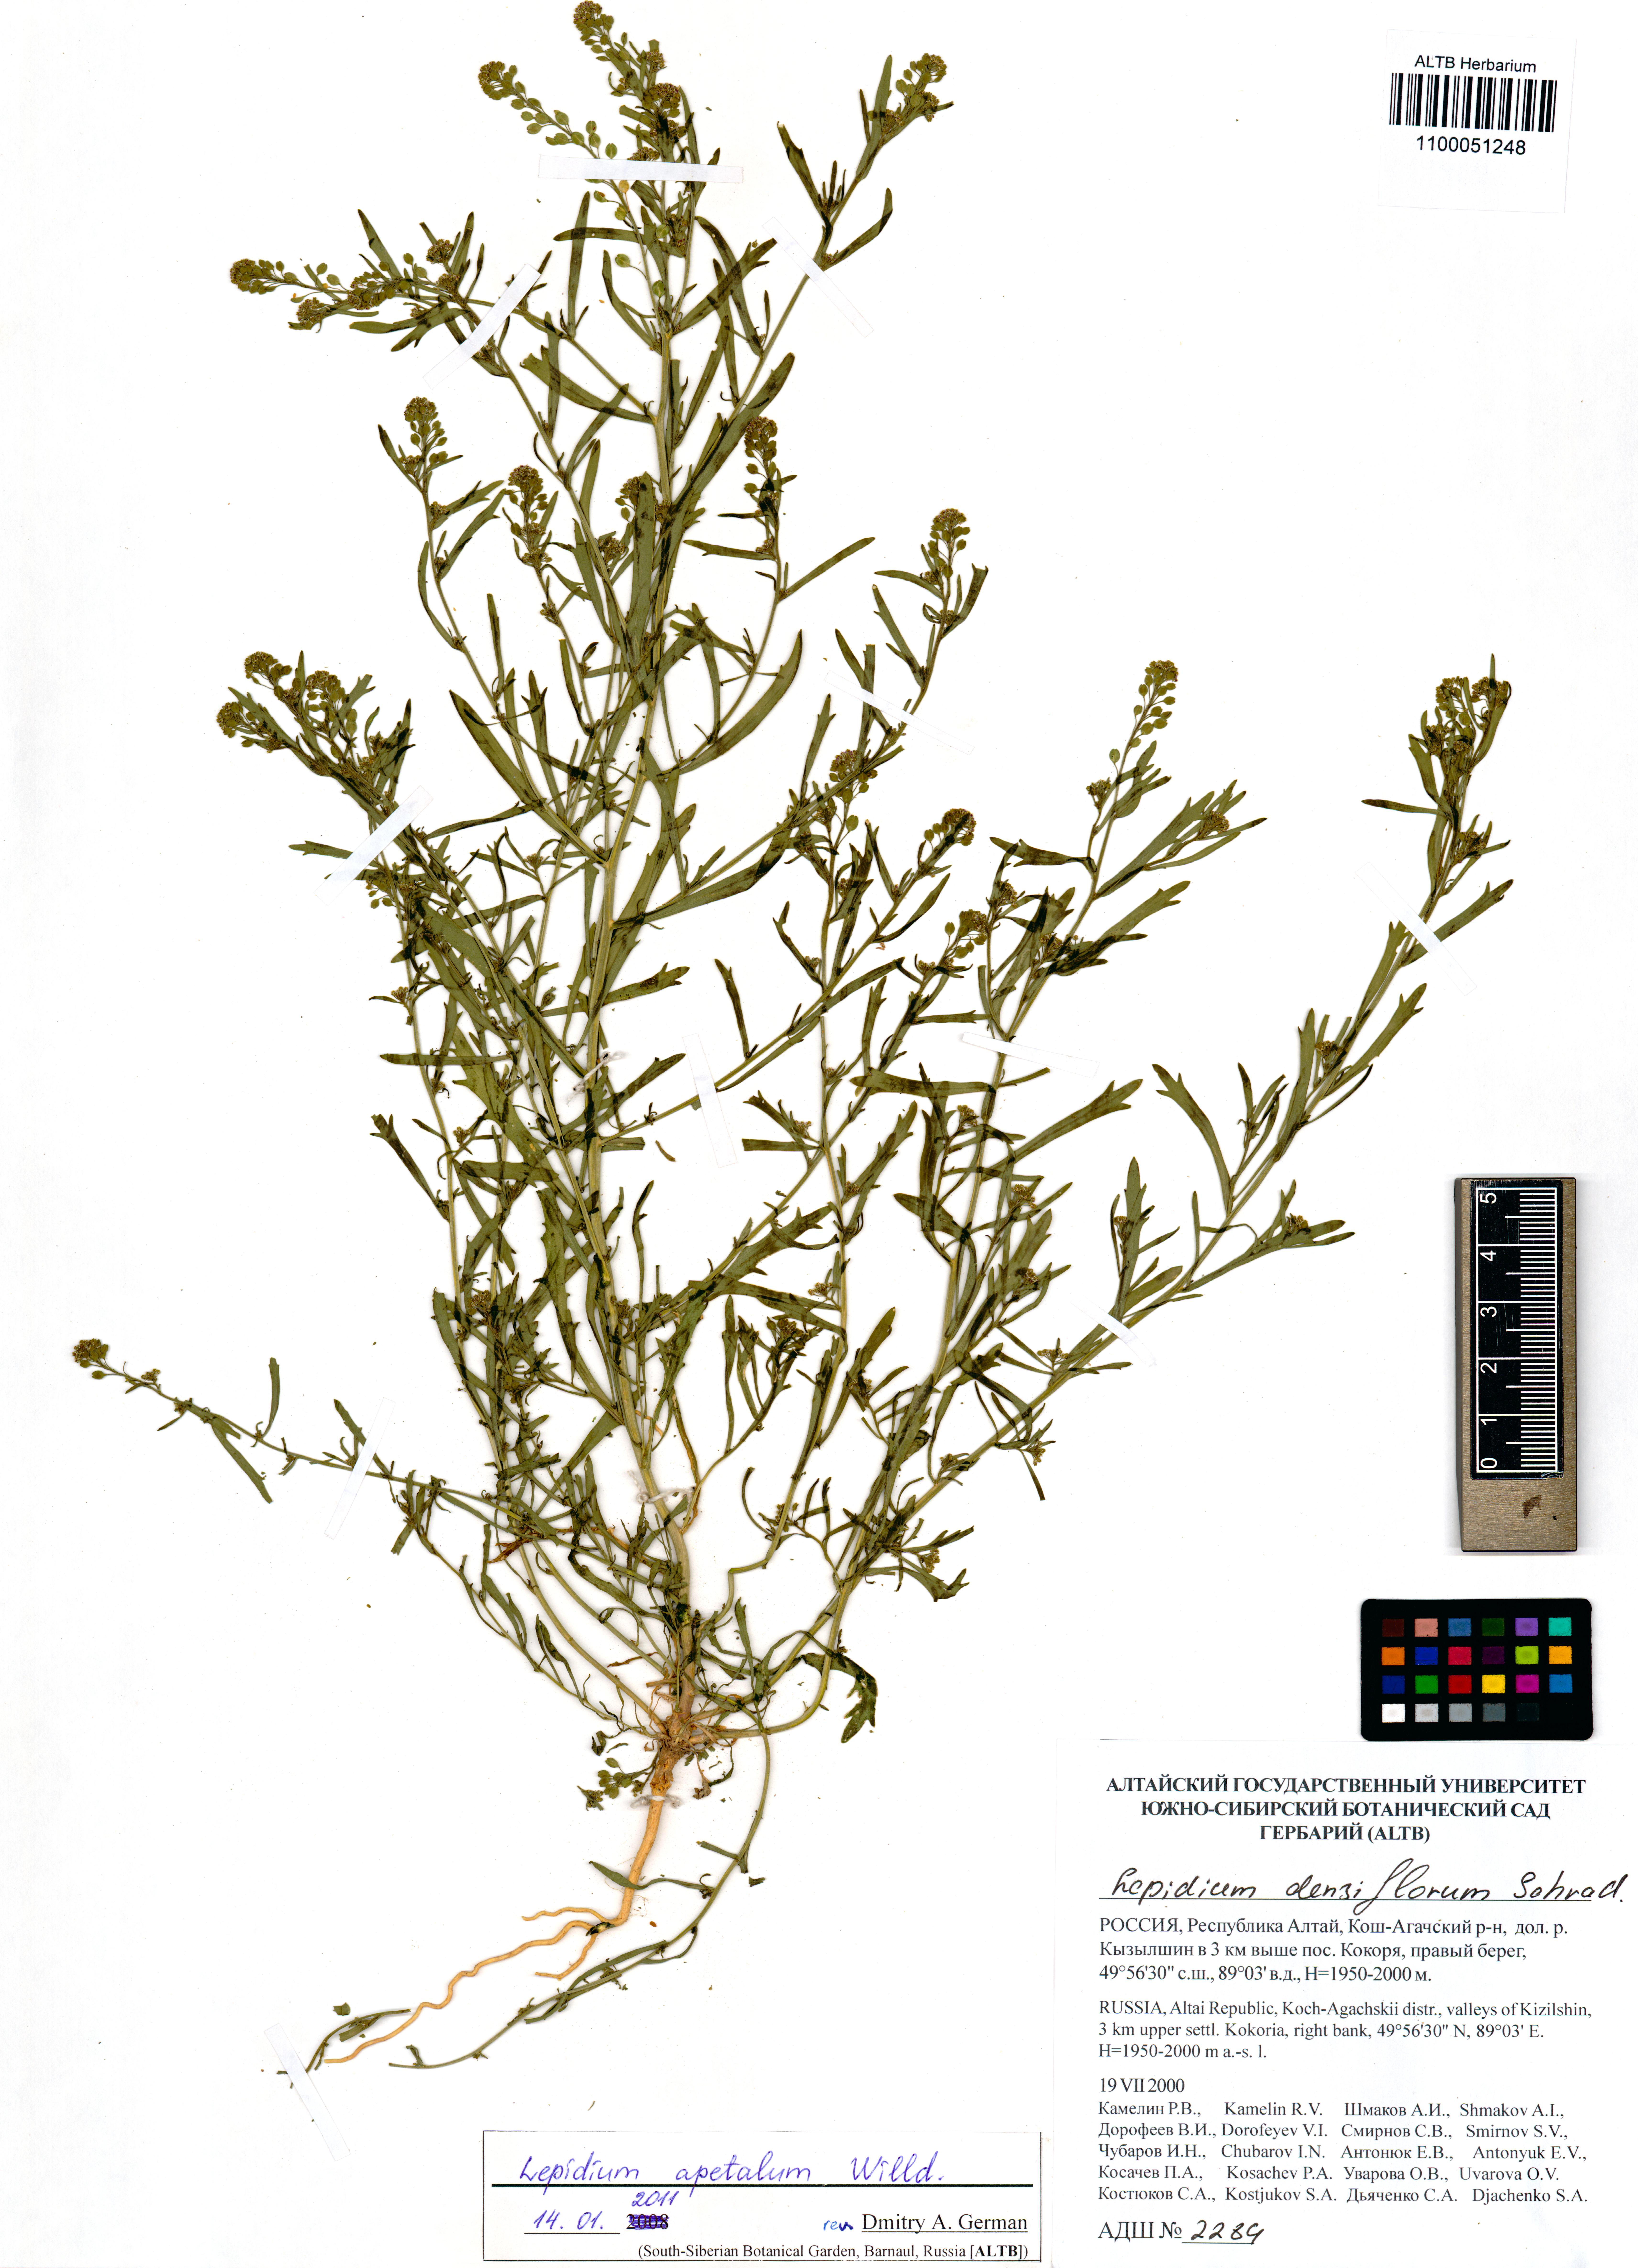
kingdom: Plantae
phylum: Tracheophyta
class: Magnoliopsida
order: Brassicales
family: Brassicaceae
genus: Lepidium
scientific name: Lepidium apetalum
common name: Pepperweed
